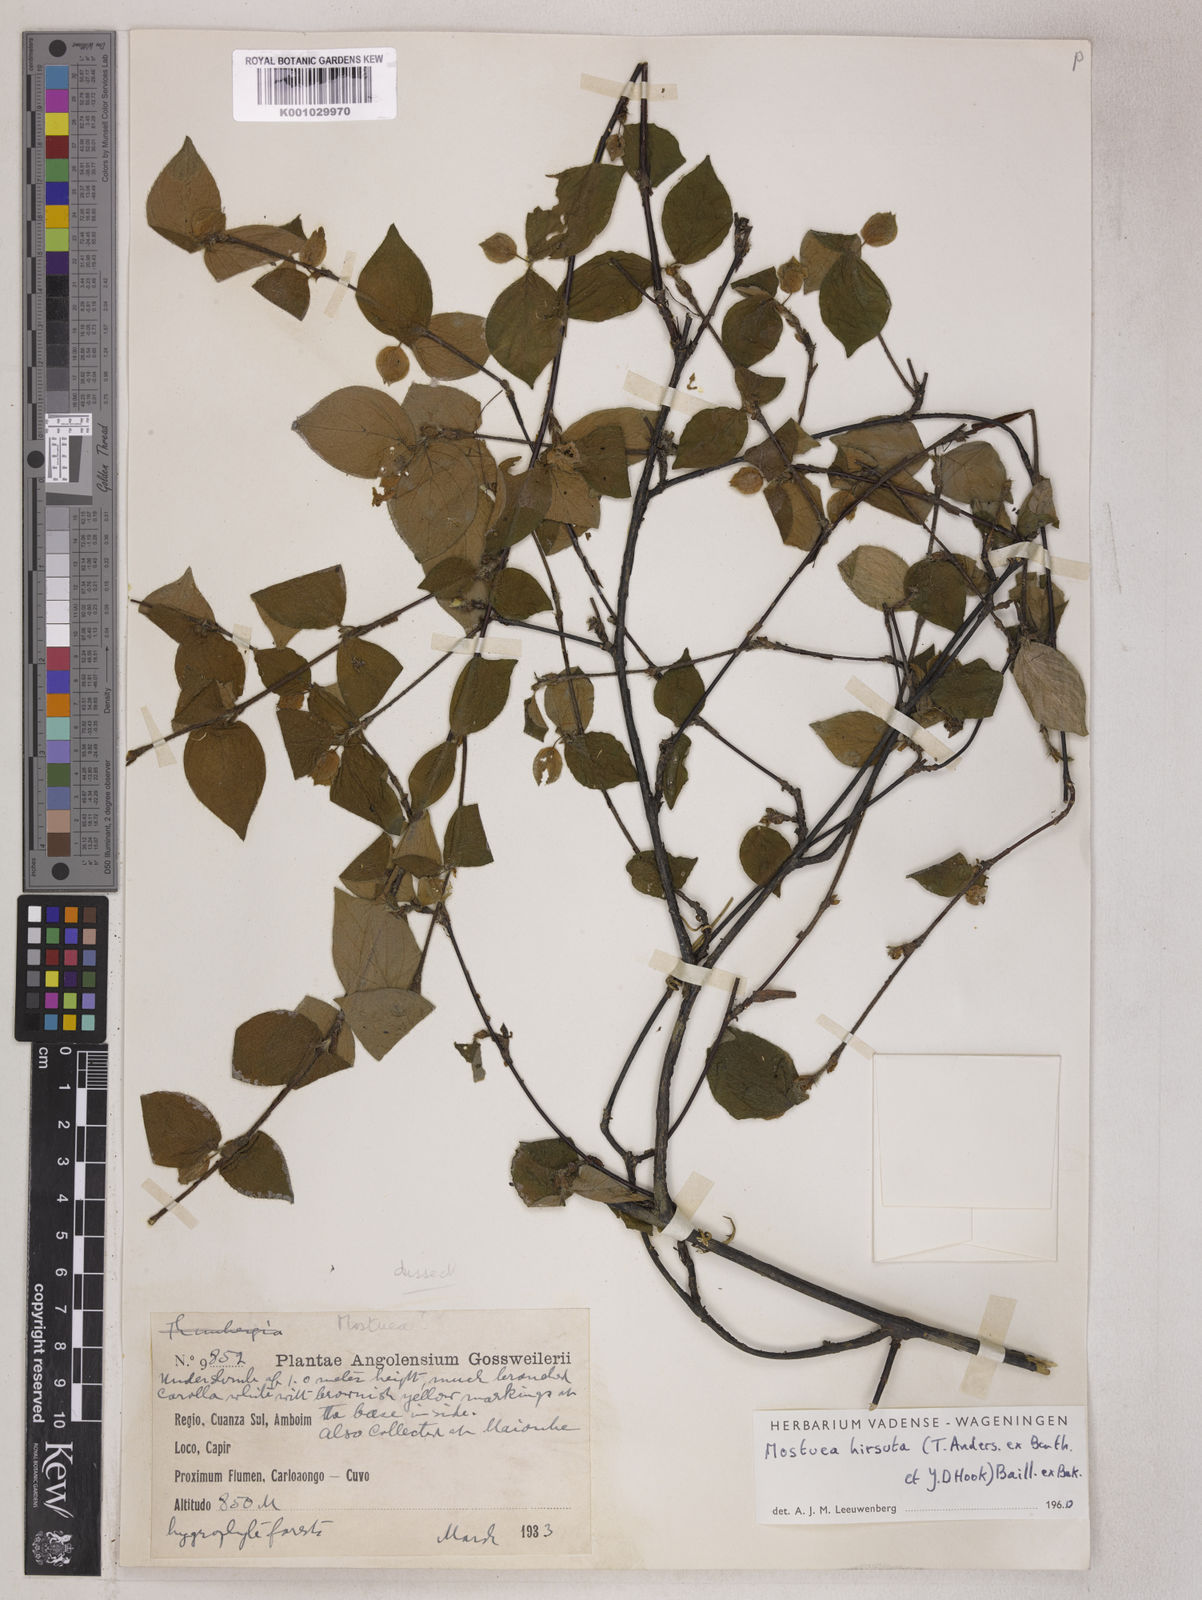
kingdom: Plantae
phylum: Tracheophyta
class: Magnoliopsida
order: Gentianales
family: Gelsemiaceae
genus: Mostuea
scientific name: Mostuea
